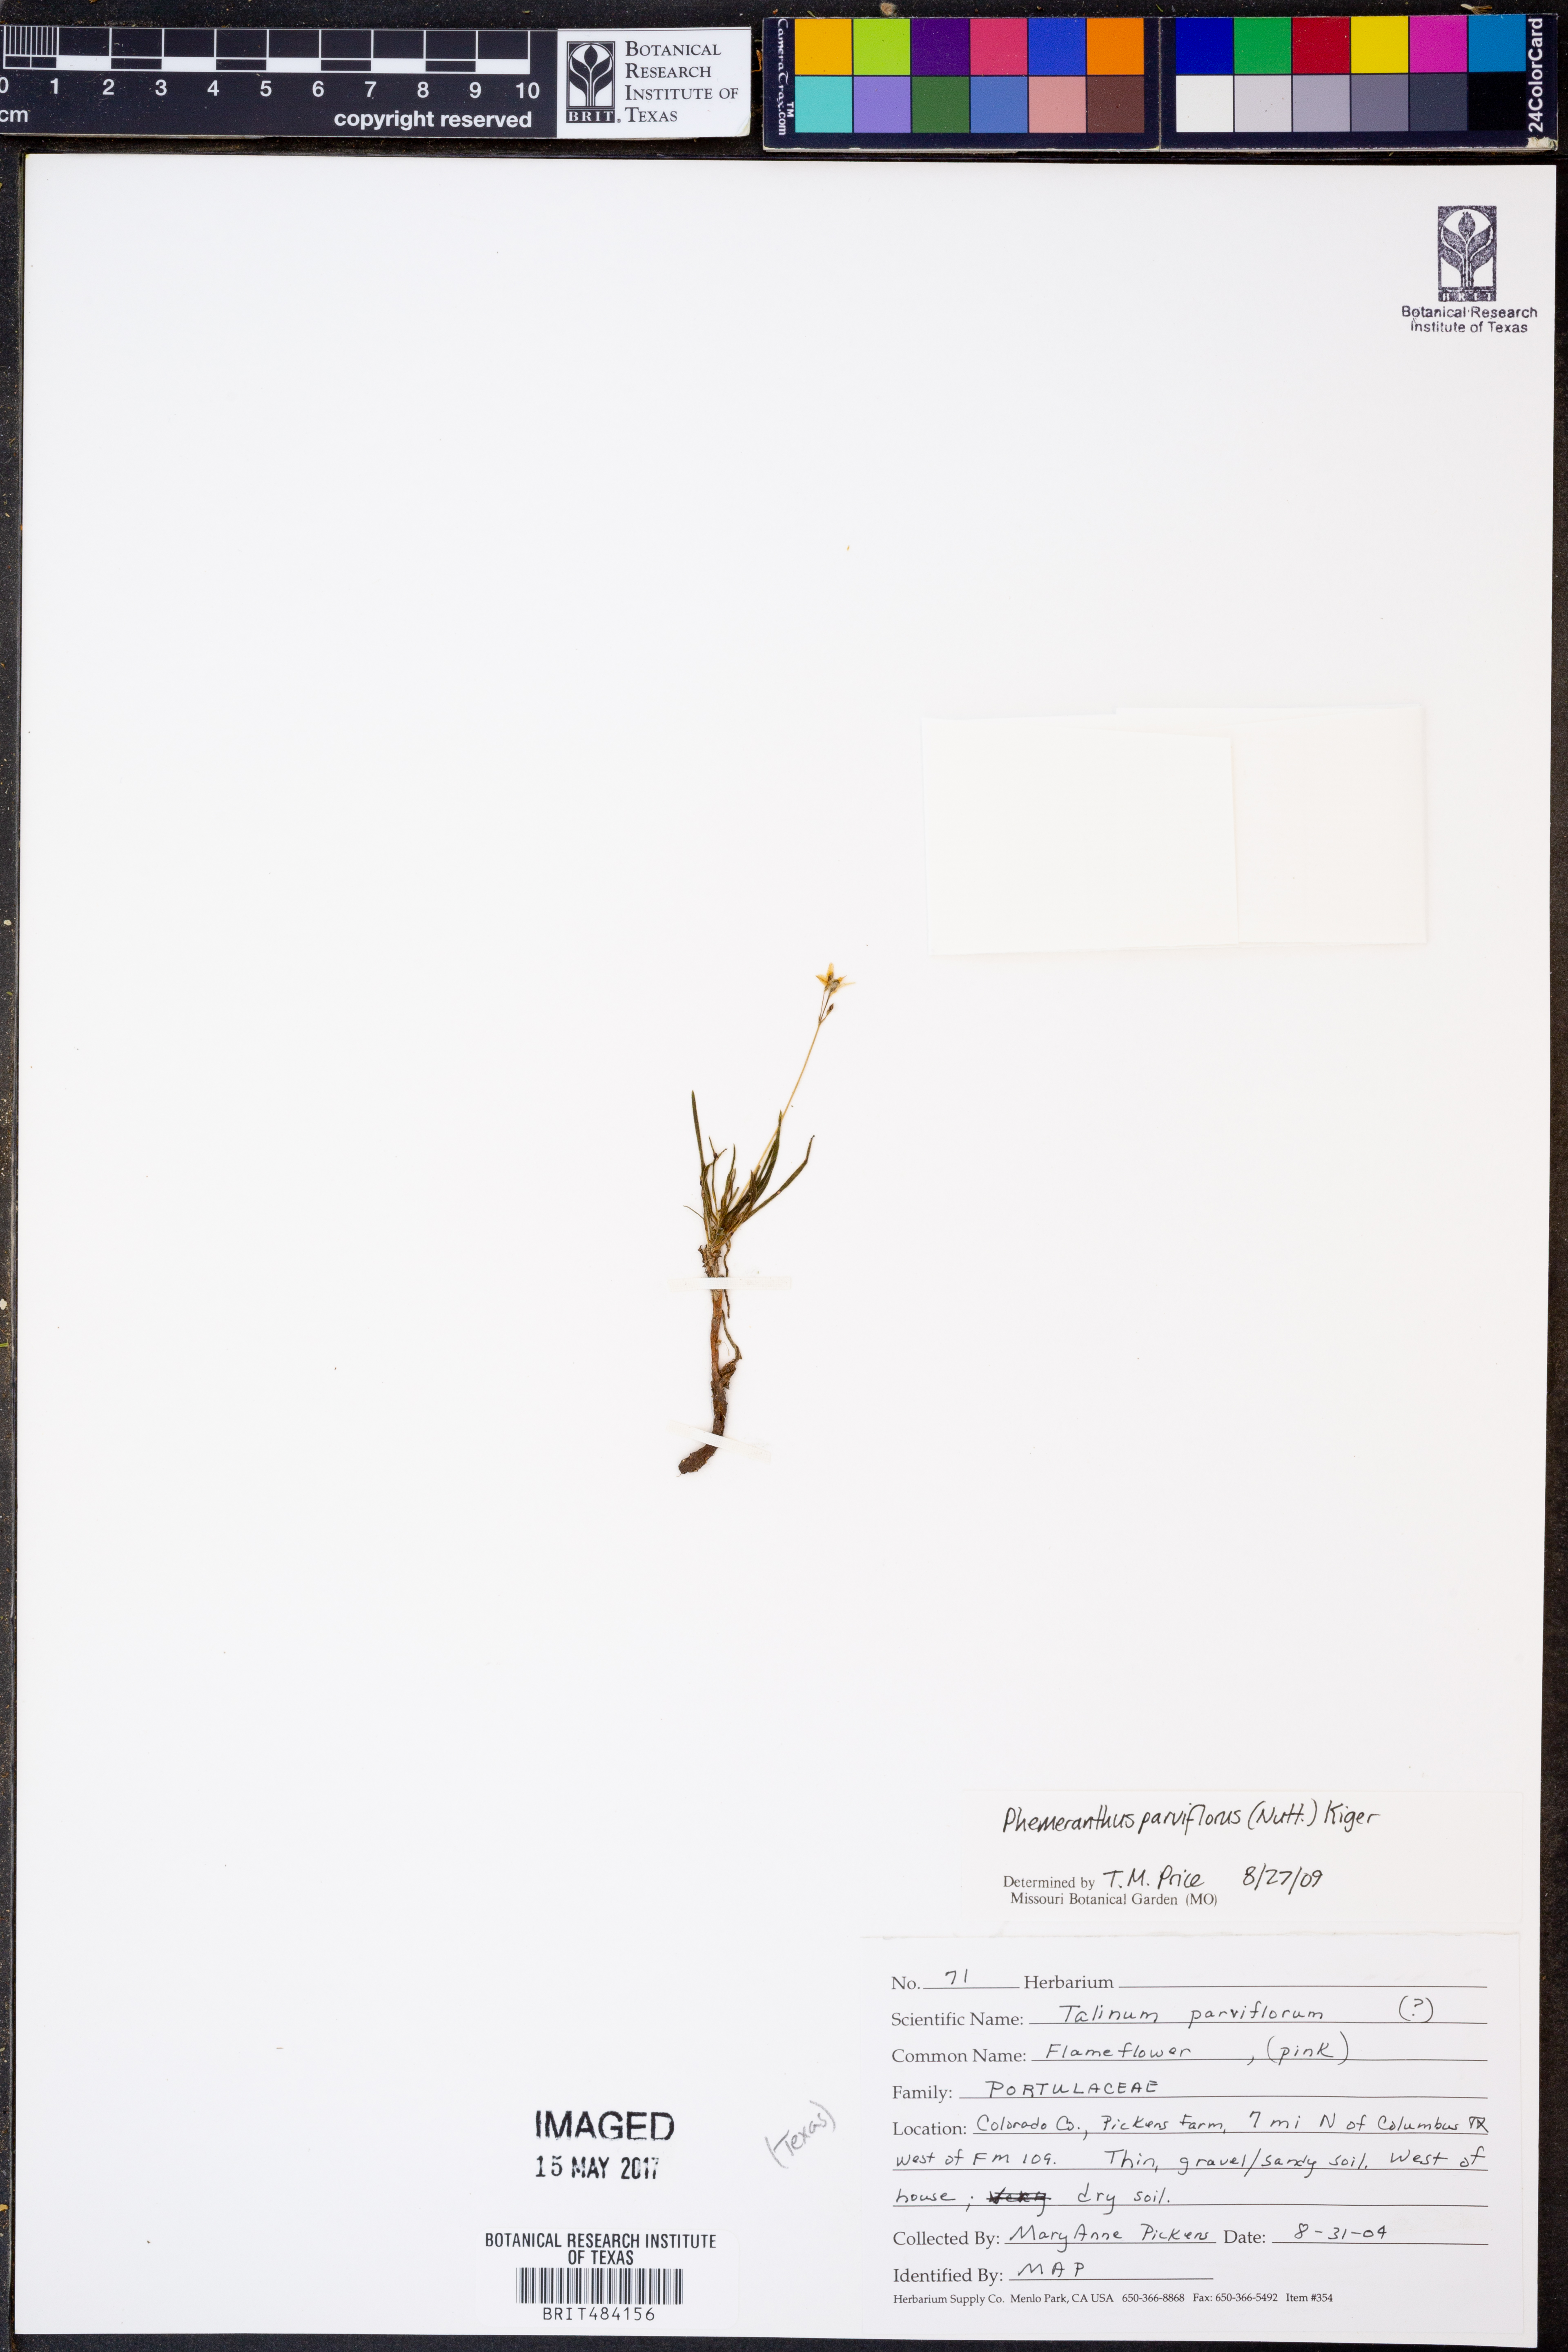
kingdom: Plantae
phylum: Tracheophyta
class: Magnoliopsida
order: Caryophyllales
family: Montiaceae
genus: Phemeranthus
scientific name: Phemeranthus parviflorus
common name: Sunbright
